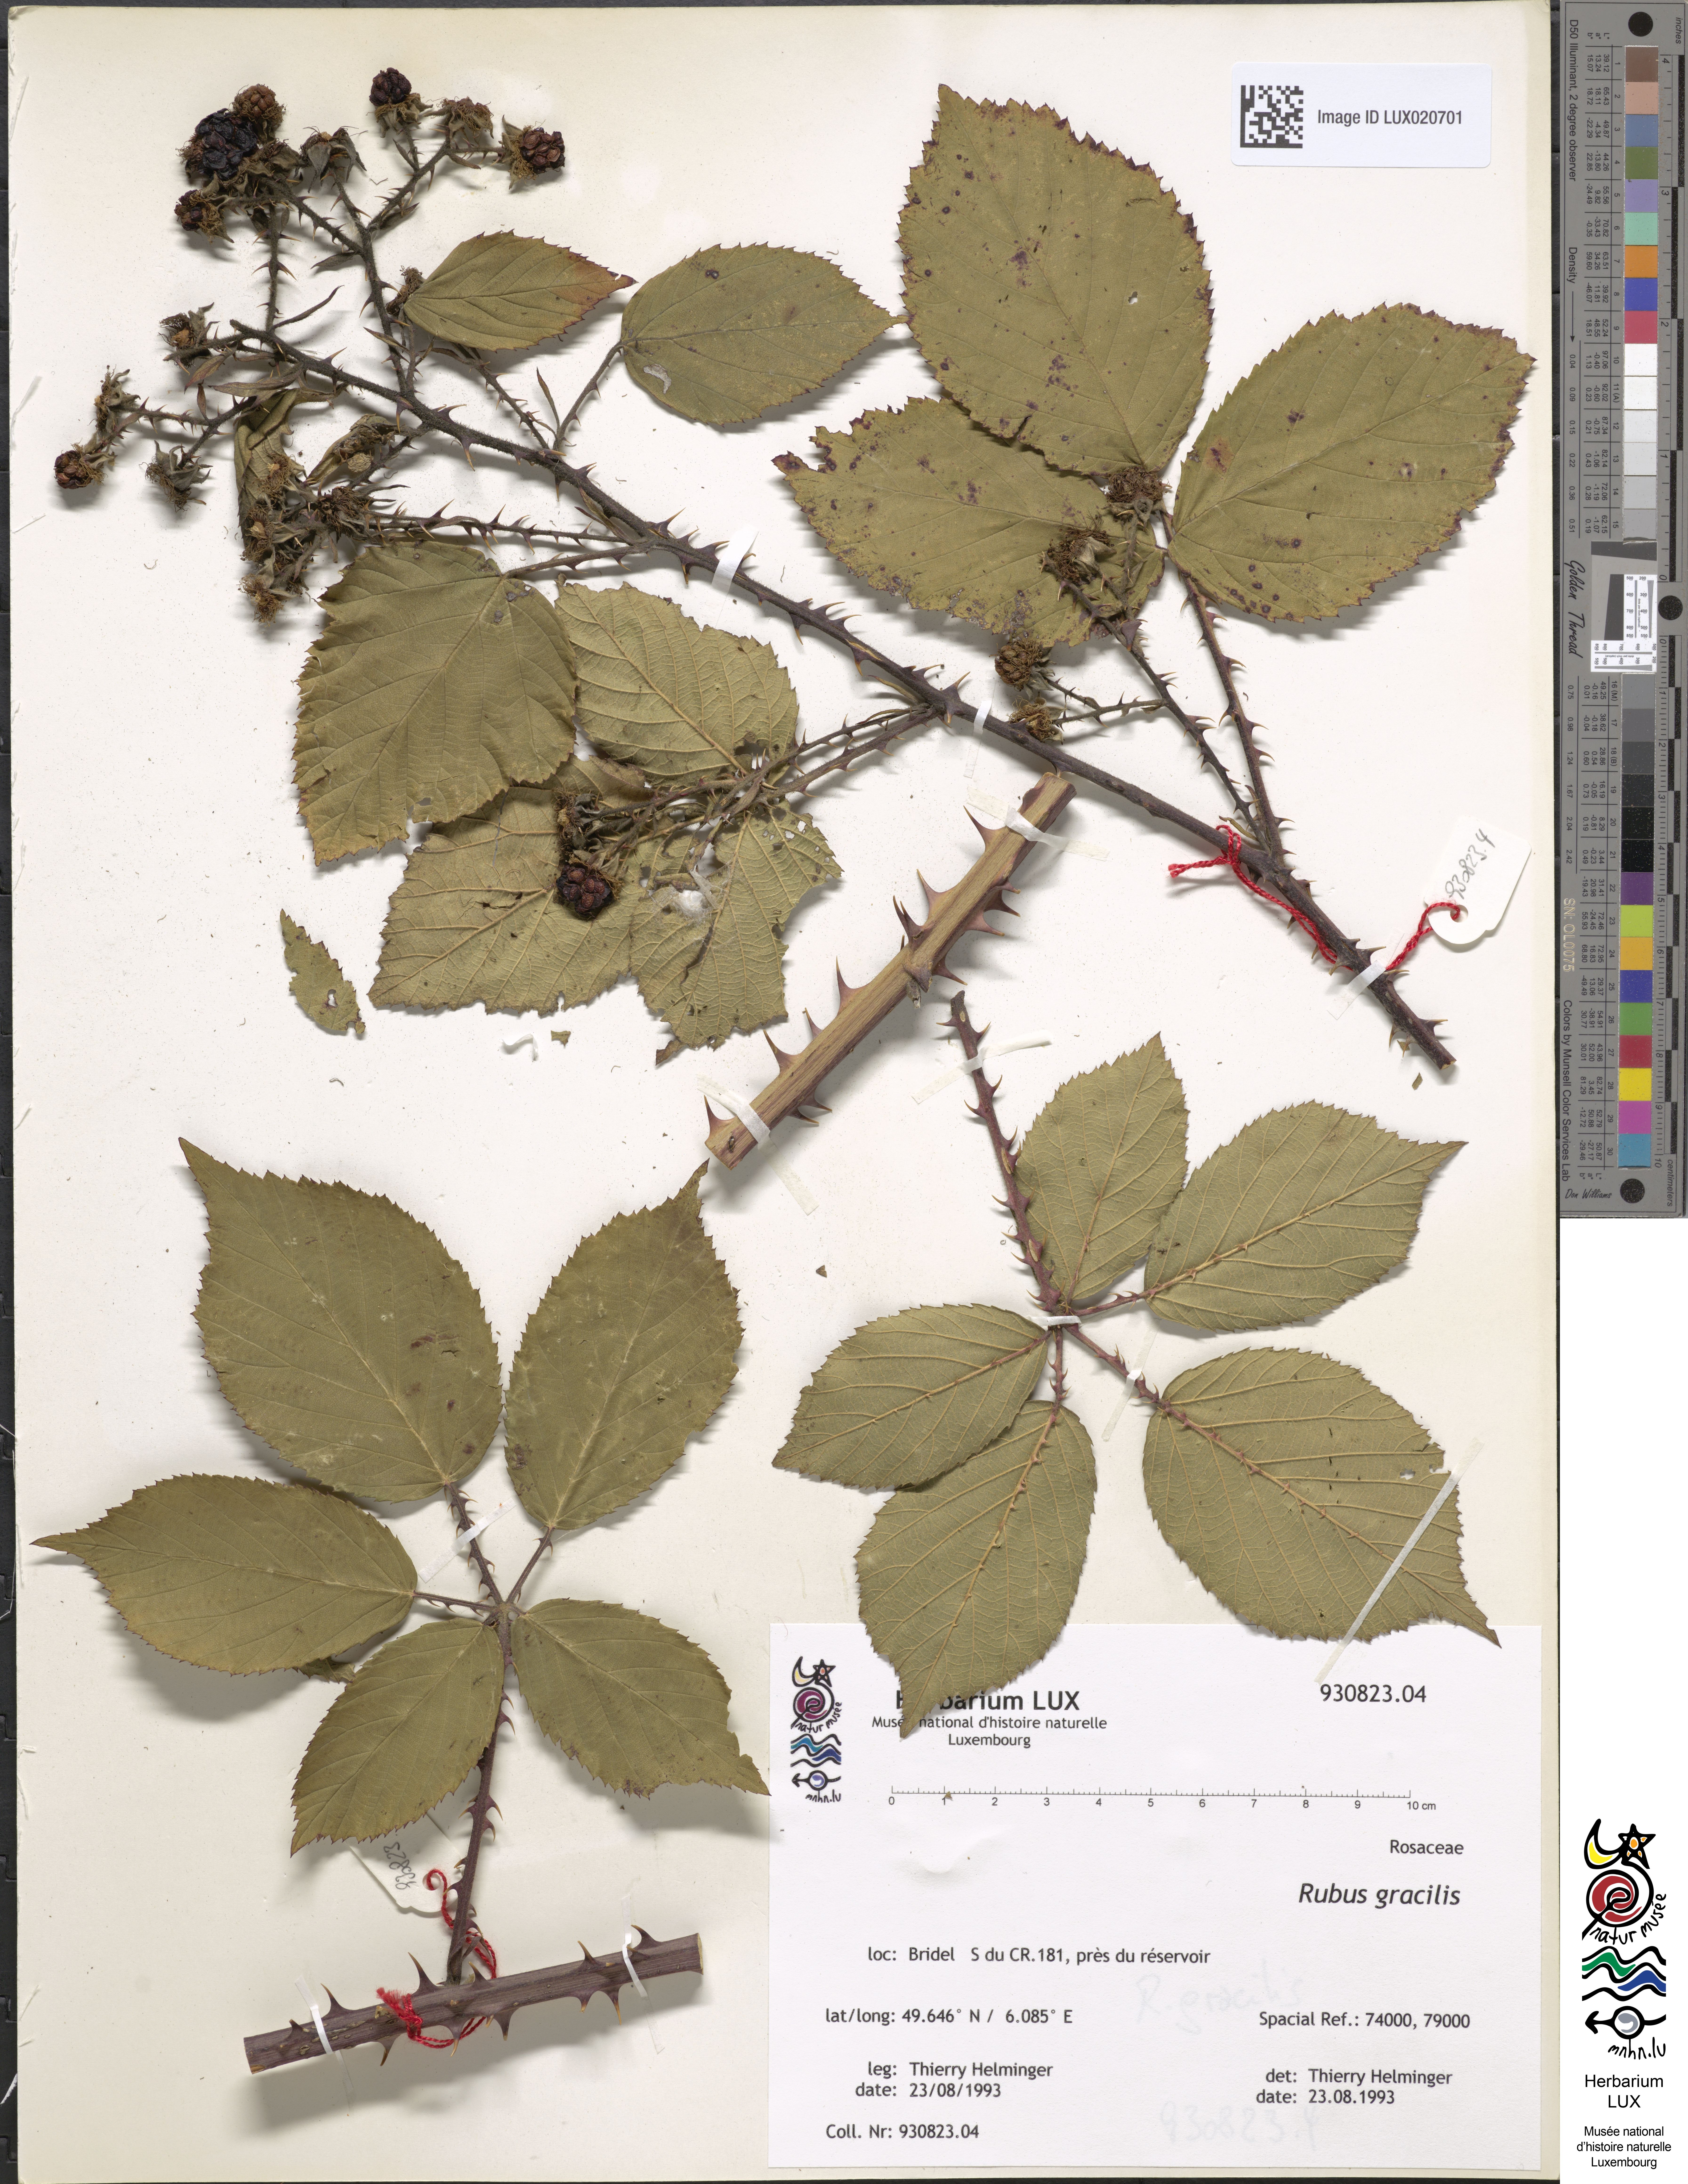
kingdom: Plantae
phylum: Tracheophyta
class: Magnoliopsida
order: Rosales
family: Rosaceae
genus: Rubus
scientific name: Rubus gracilis
